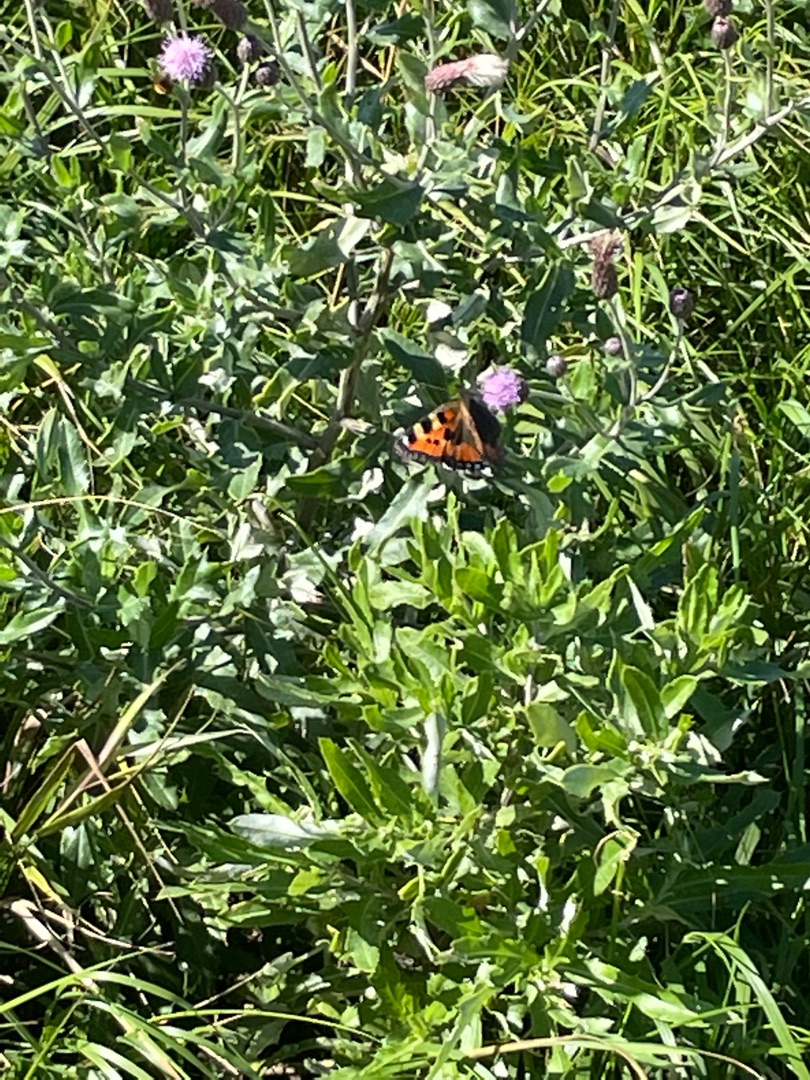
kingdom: Animalia
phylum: Arthropoda
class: Insecta
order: Lepidoptera
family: Nymphalidae
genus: Aglais
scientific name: Aglais urticae
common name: Nældens takvinge
